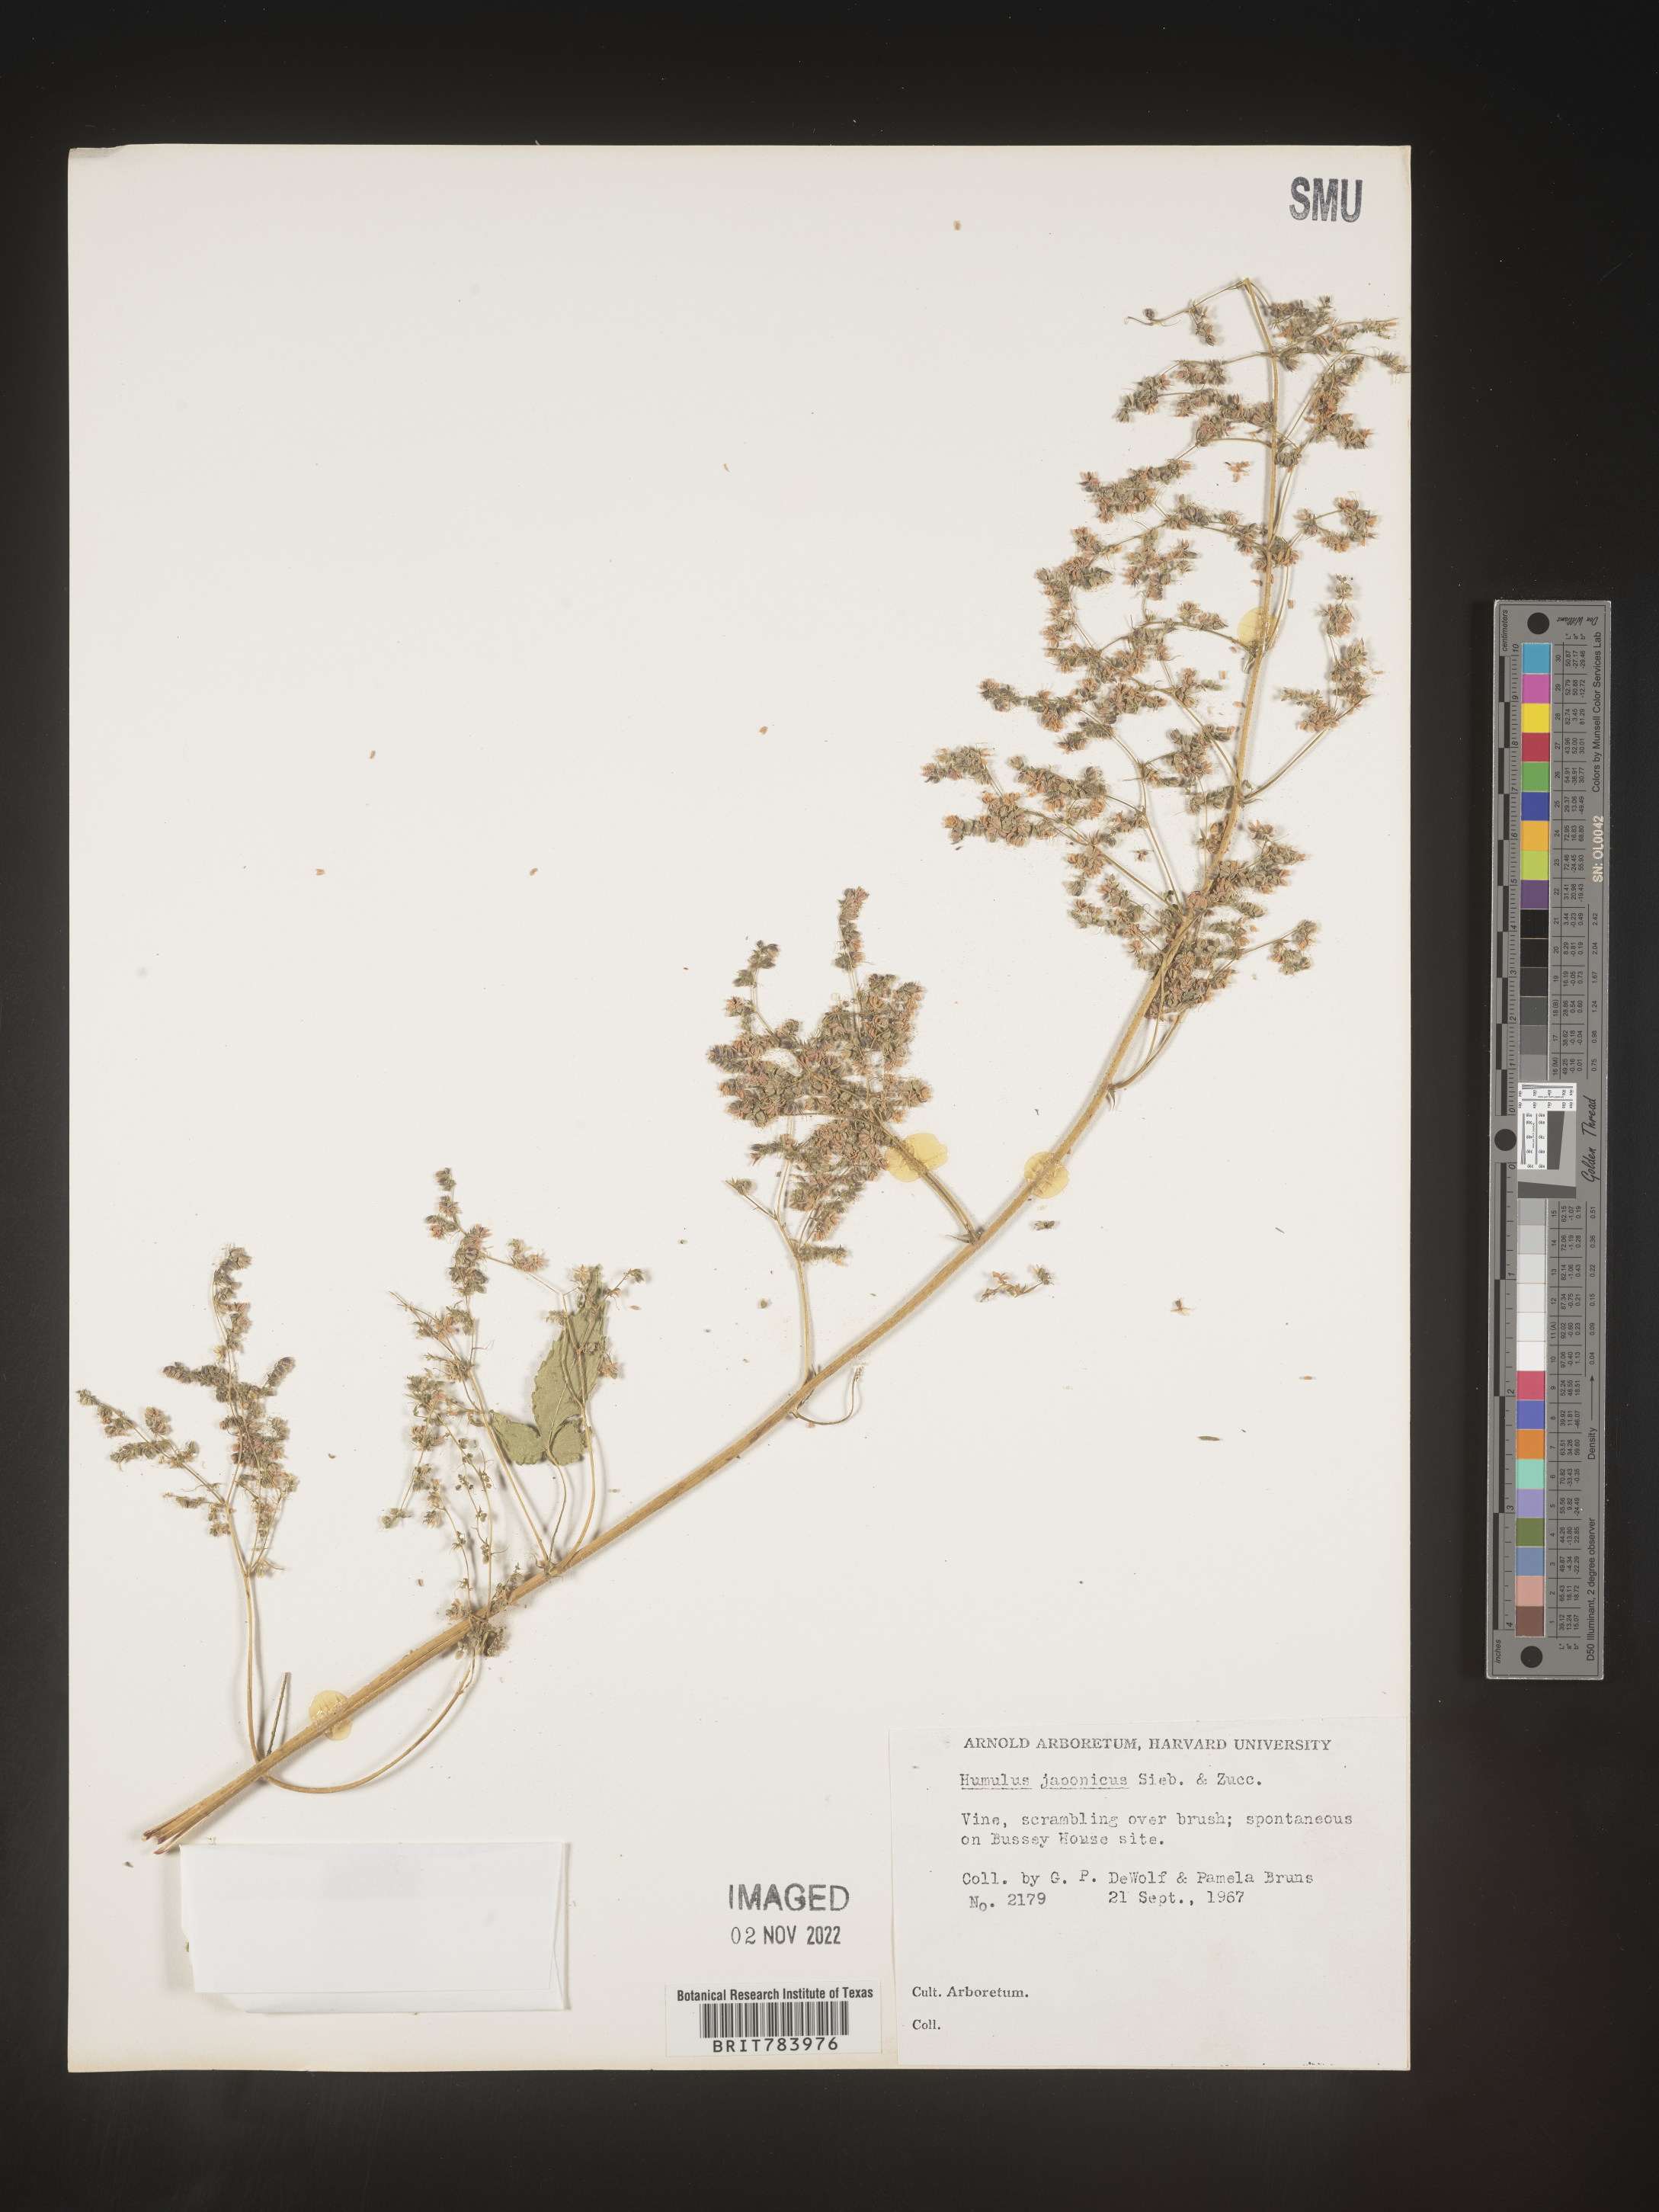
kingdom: Plantae
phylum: Tracheophyta
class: Magnoliopsida
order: Rosales
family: Cannabaceae
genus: Humulus
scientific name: Humulus scandens
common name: Japanese hop
